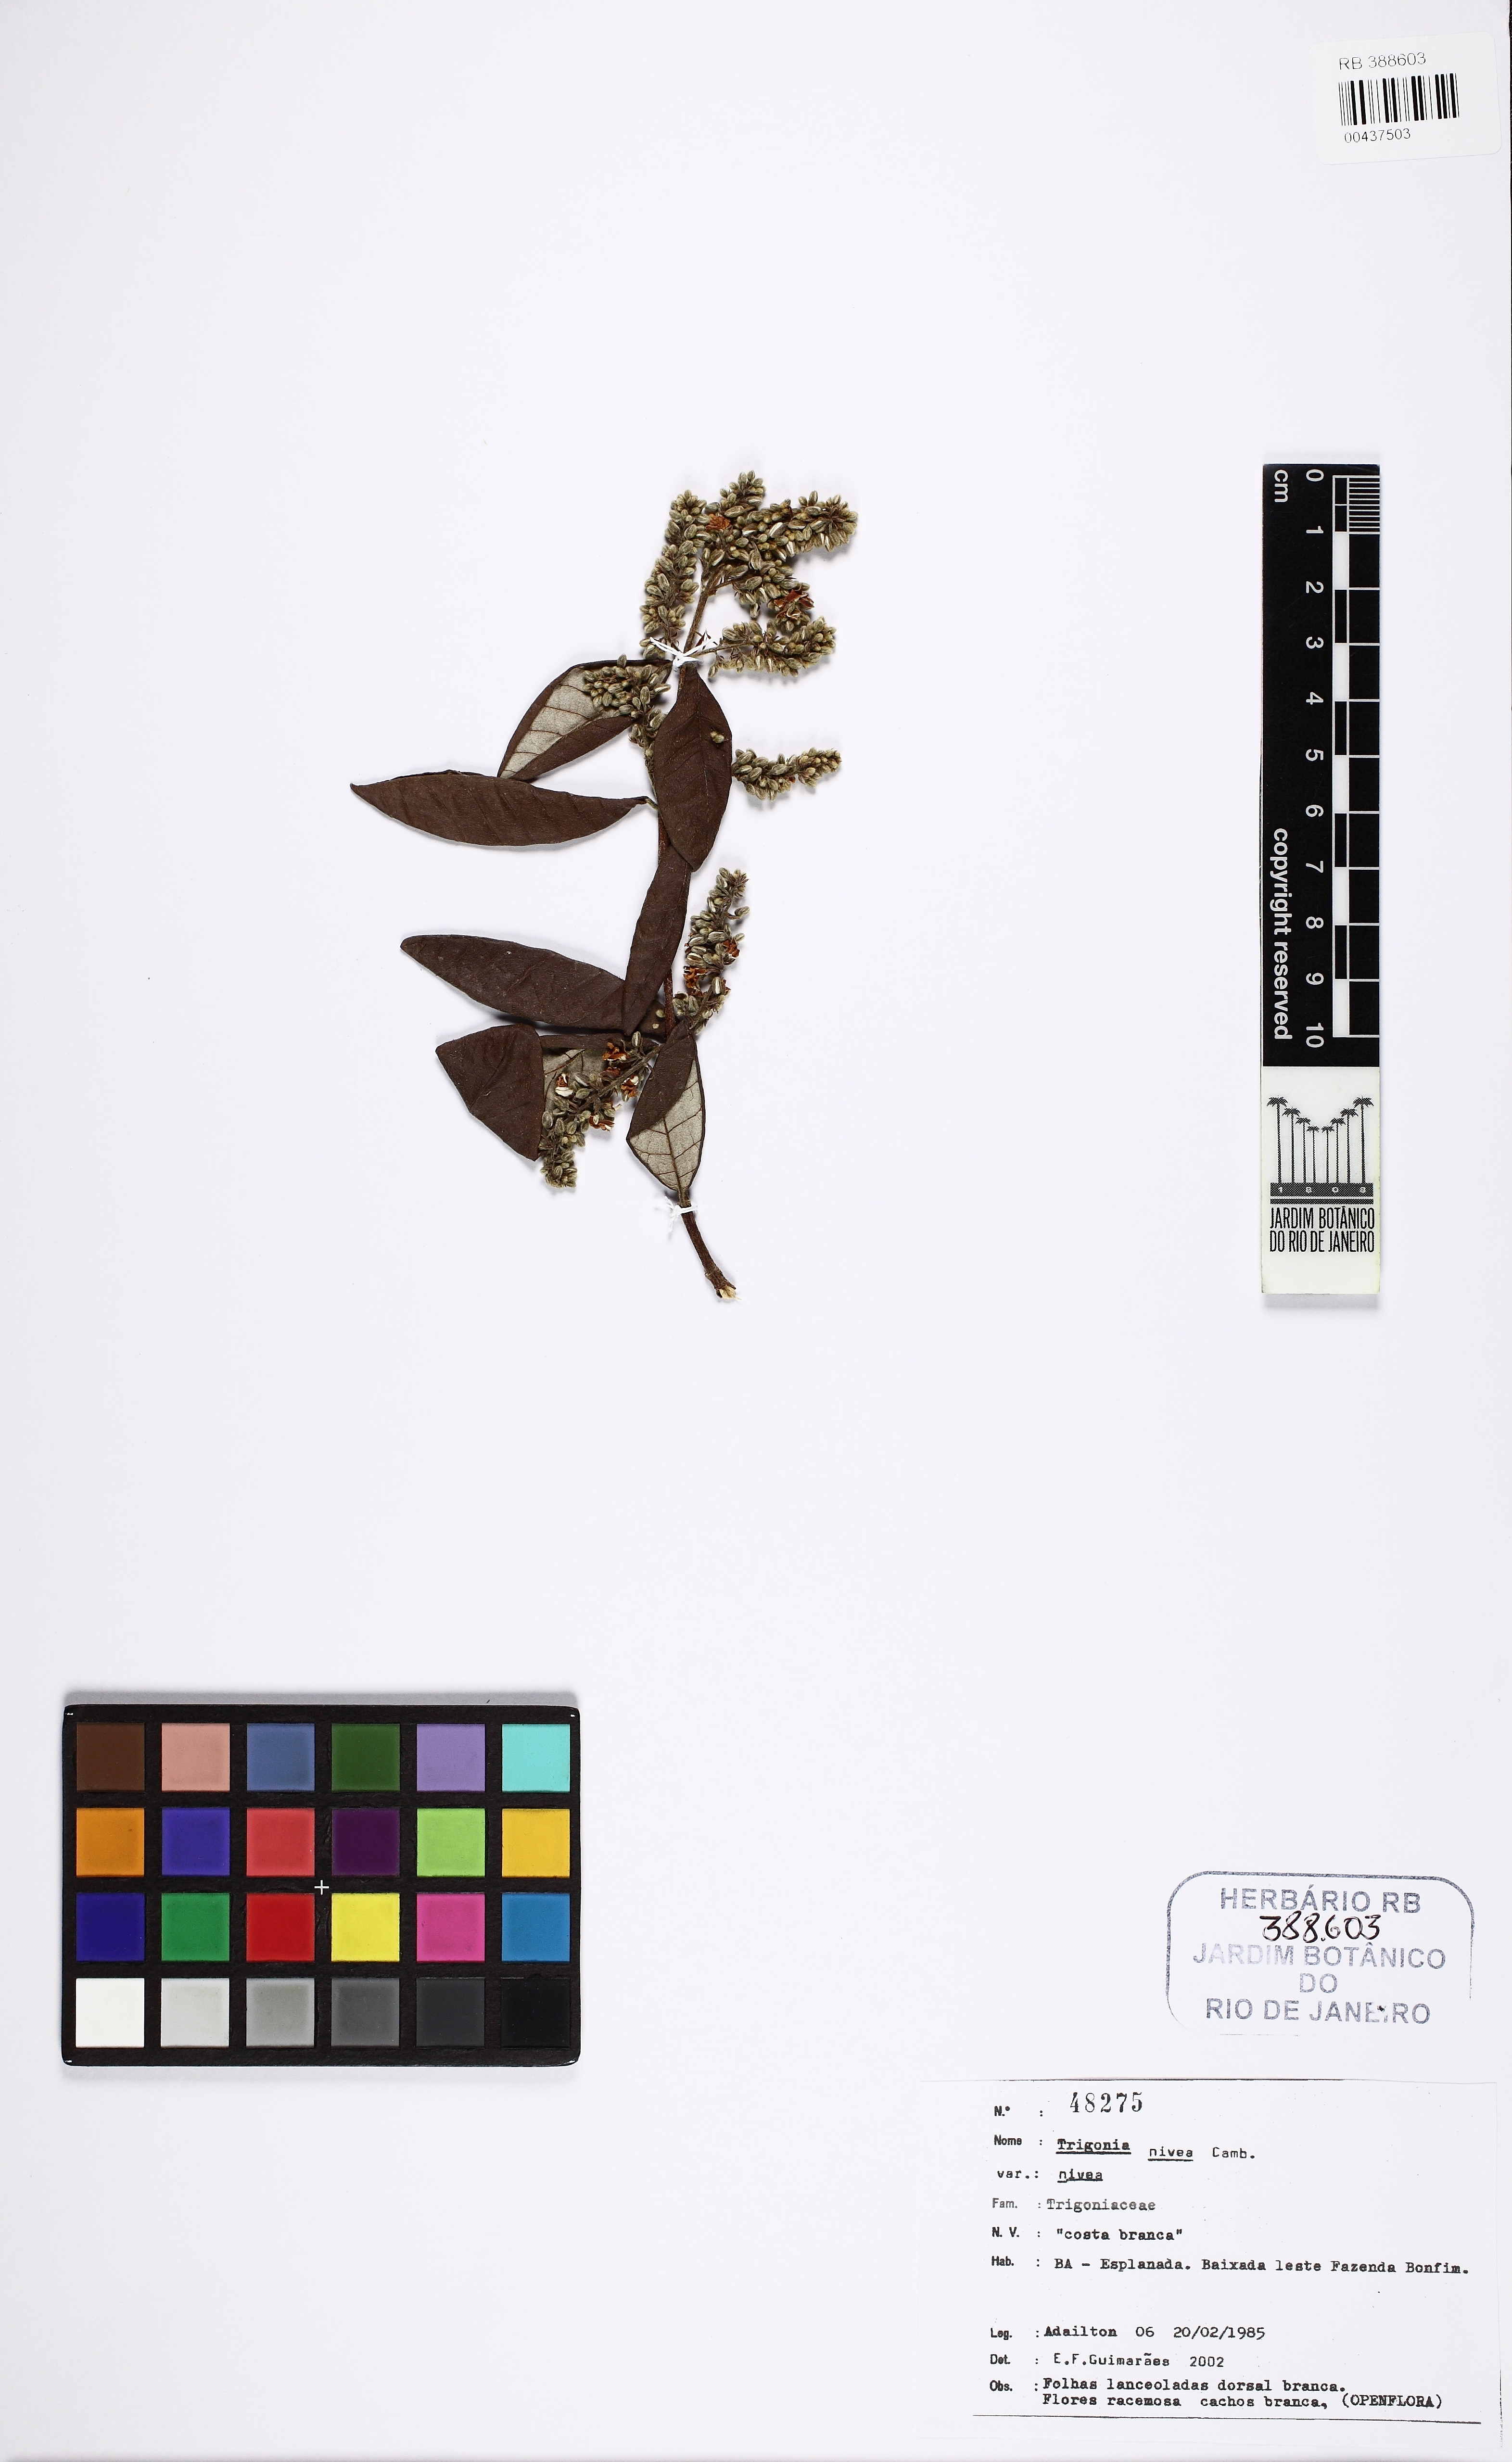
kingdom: Plantae
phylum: Tracheophyta
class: Magnoliopsida
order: Malpighiales
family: Trigoniaceae
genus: Trigonia
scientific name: Trigonia nivea
